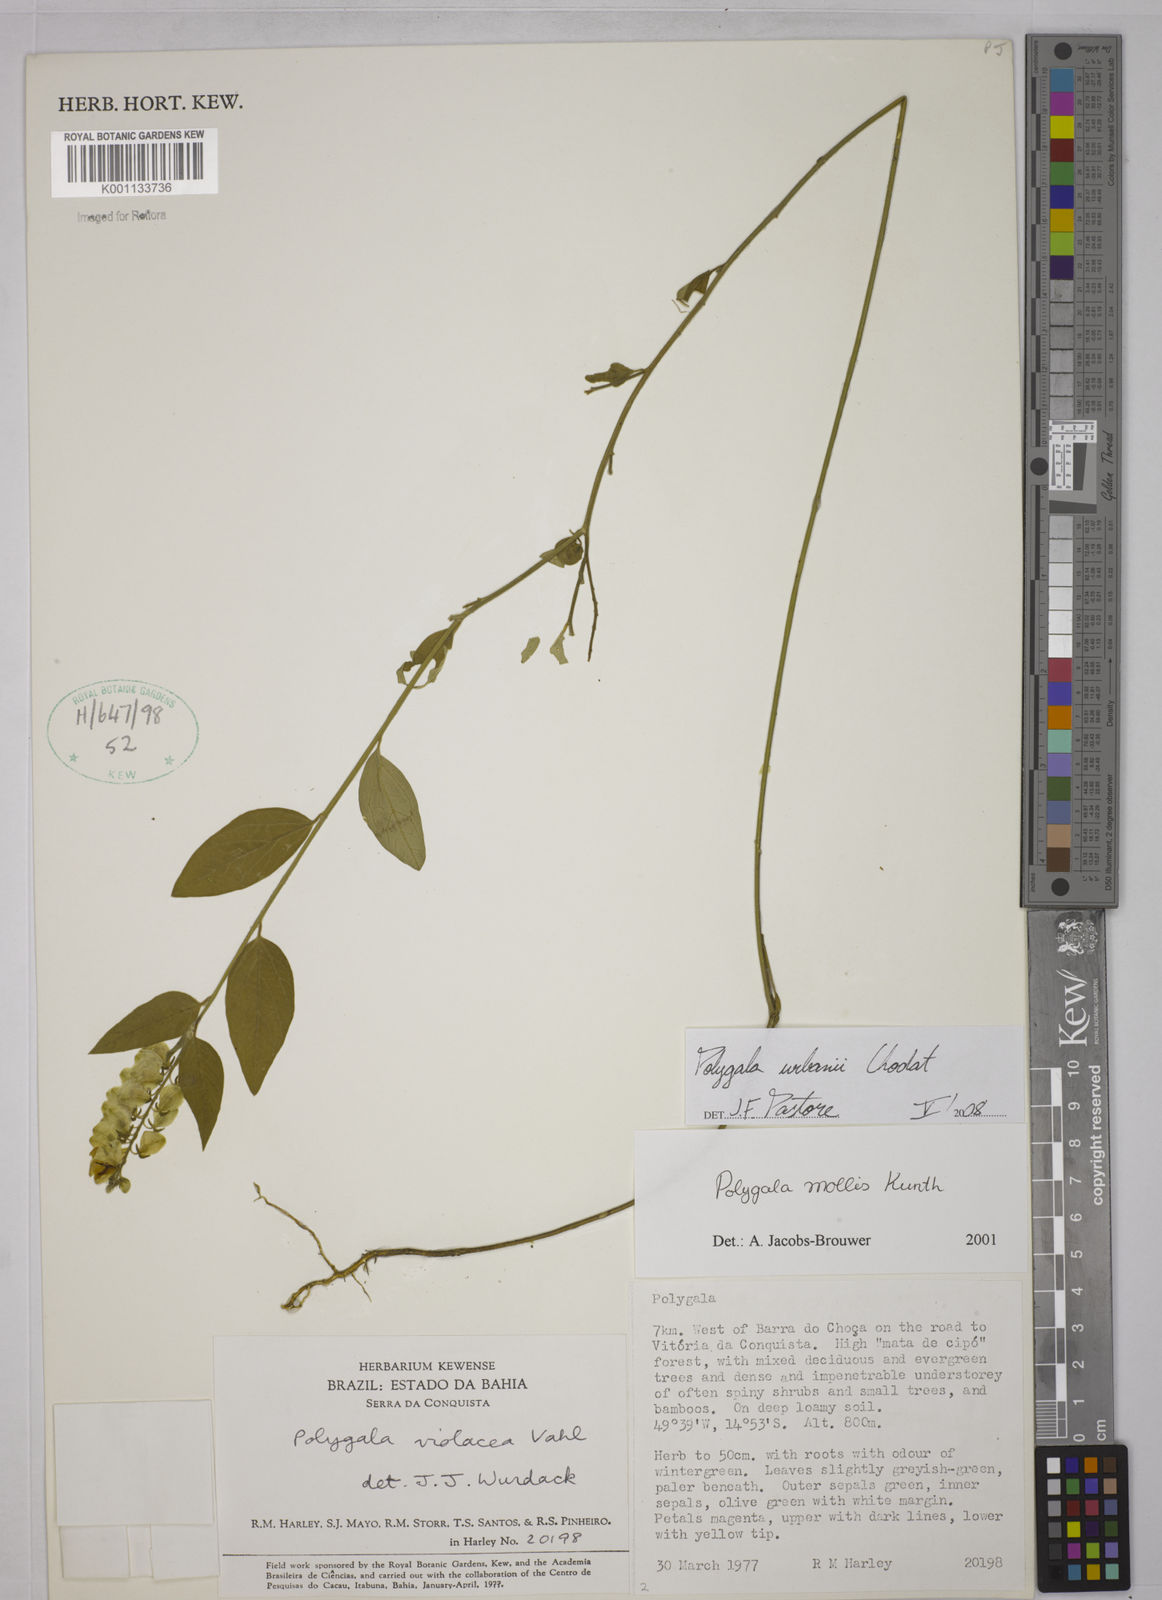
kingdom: Plantae
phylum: Tracheophyta
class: Magnoliopsida
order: Fabales
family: Polygalaceae
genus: Asemeia
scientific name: Asemeia monninoides
